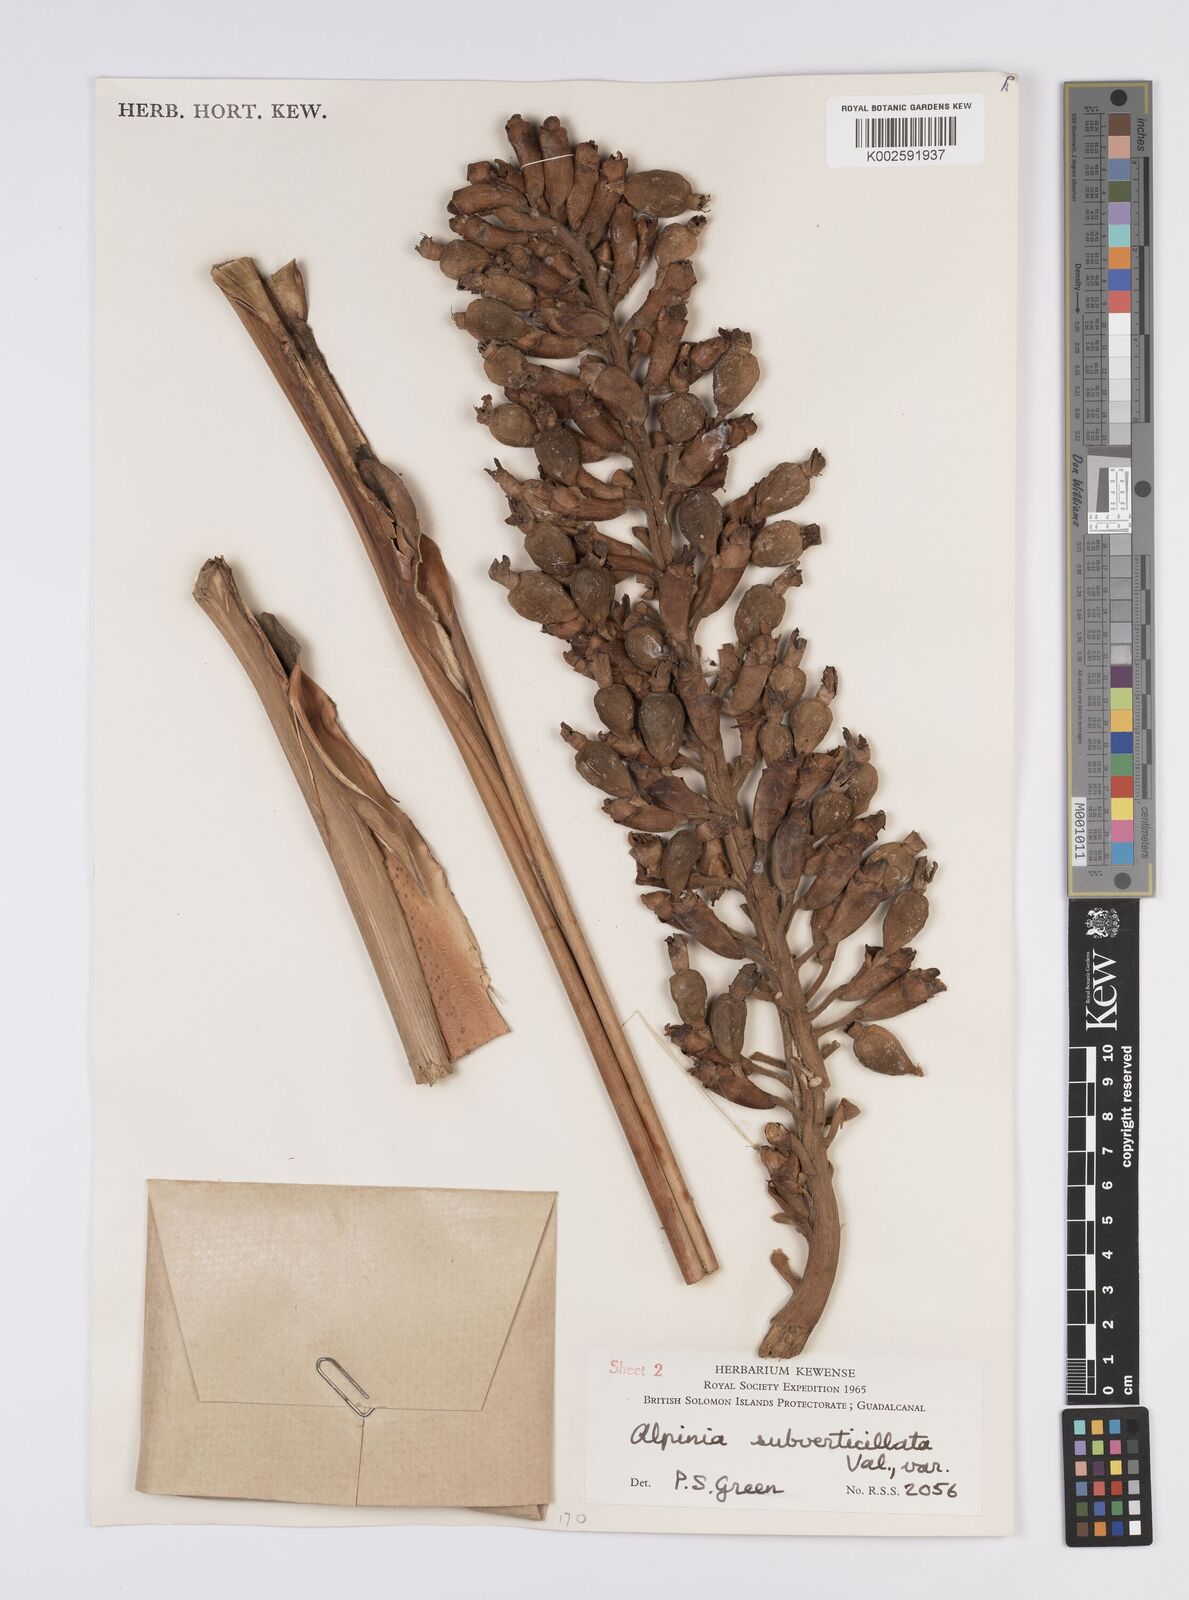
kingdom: Plantae
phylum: Tracheophyta
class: Liliopsida
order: Zingiberales
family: Zingiberaceae
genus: Alpinia
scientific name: Alpinia subverticillata
